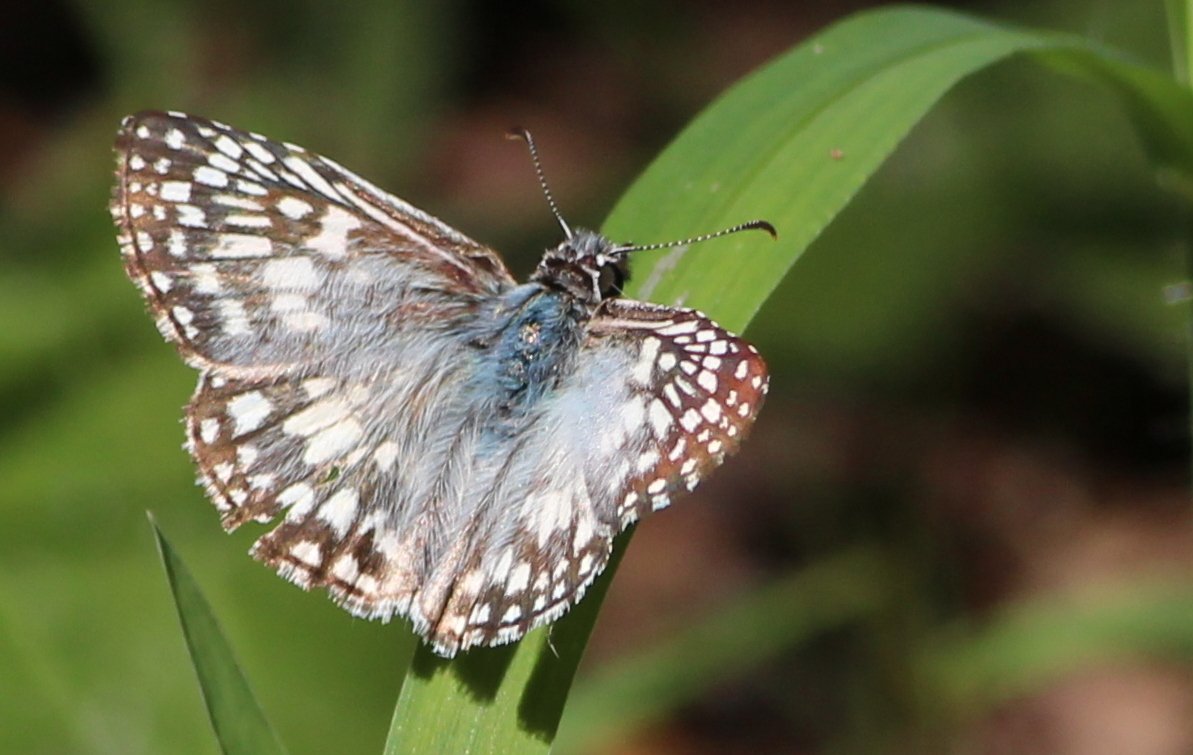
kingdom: Animalia
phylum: Arthropoda
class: Insecta
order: Lepidoptera
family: Hesperiidae
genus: Pyrgus
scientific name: Pyrgus oileus
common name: Tropical Checkered-Skipper
